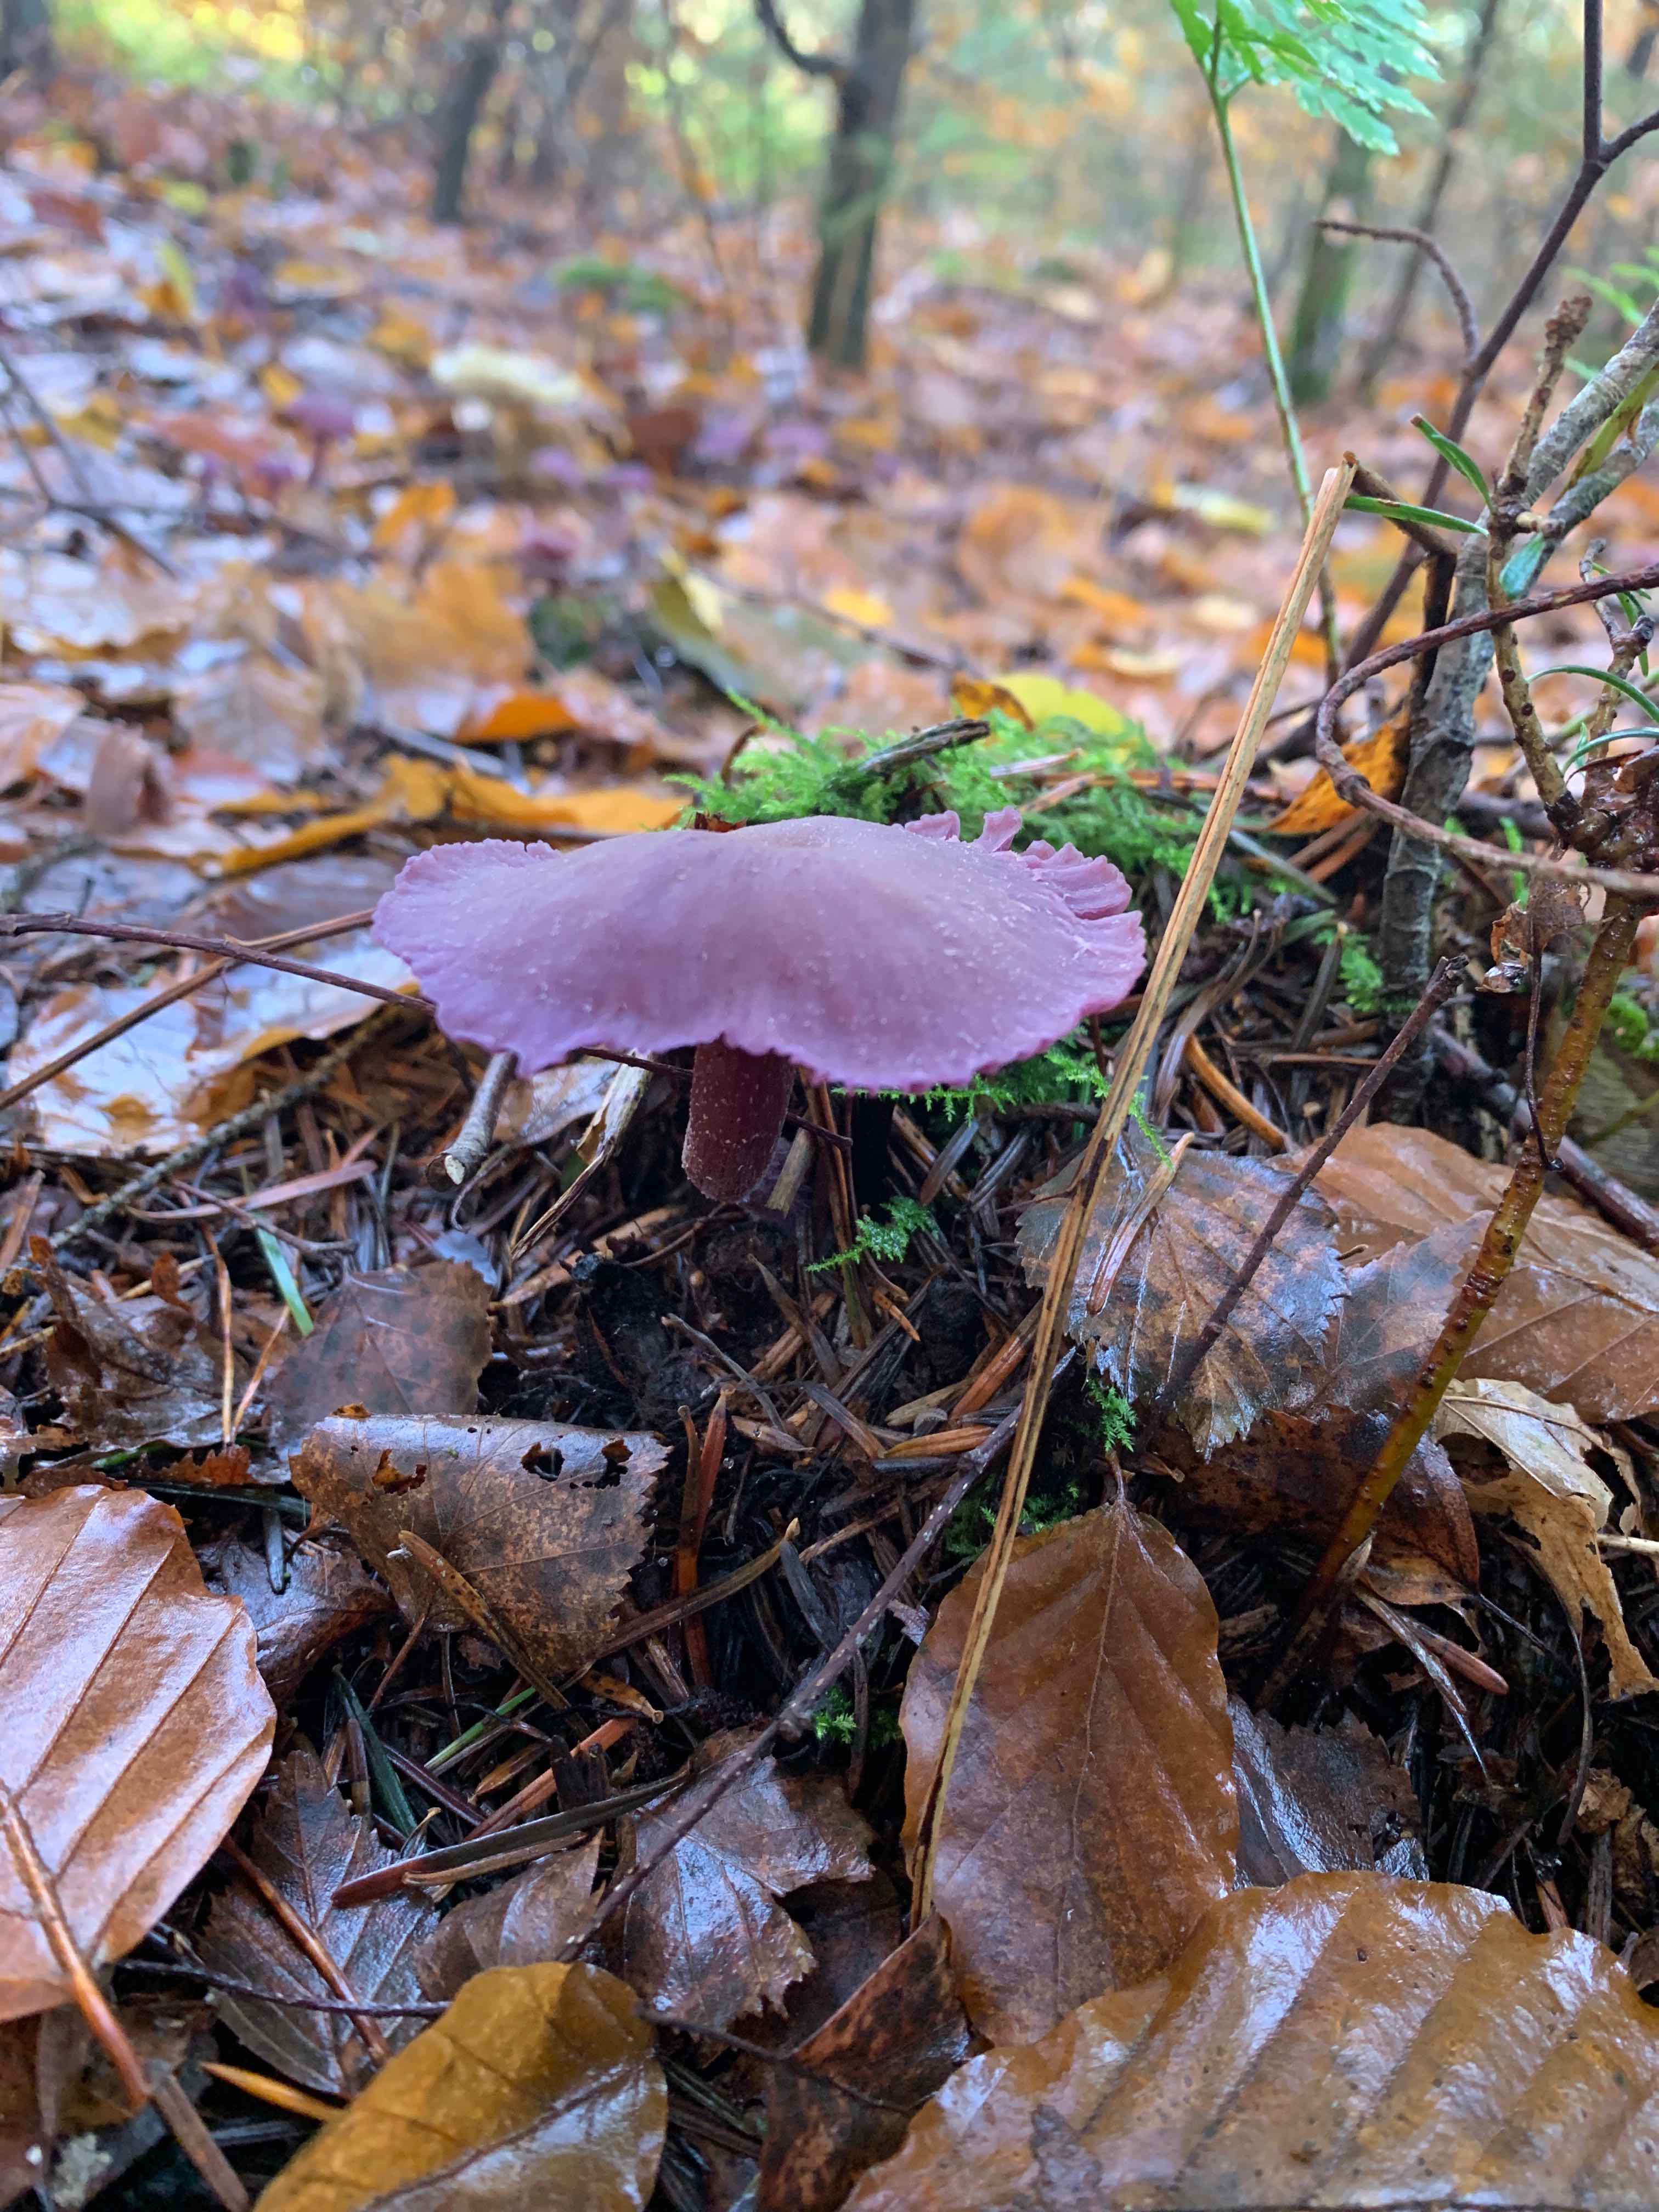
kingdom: Fungi
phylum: Basidiomycota
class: Agaricomycetes
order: Agaricales
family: Hydnangiaceae
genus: Laccaria
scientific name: Laccaria amethystina
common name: violet ametysthat
